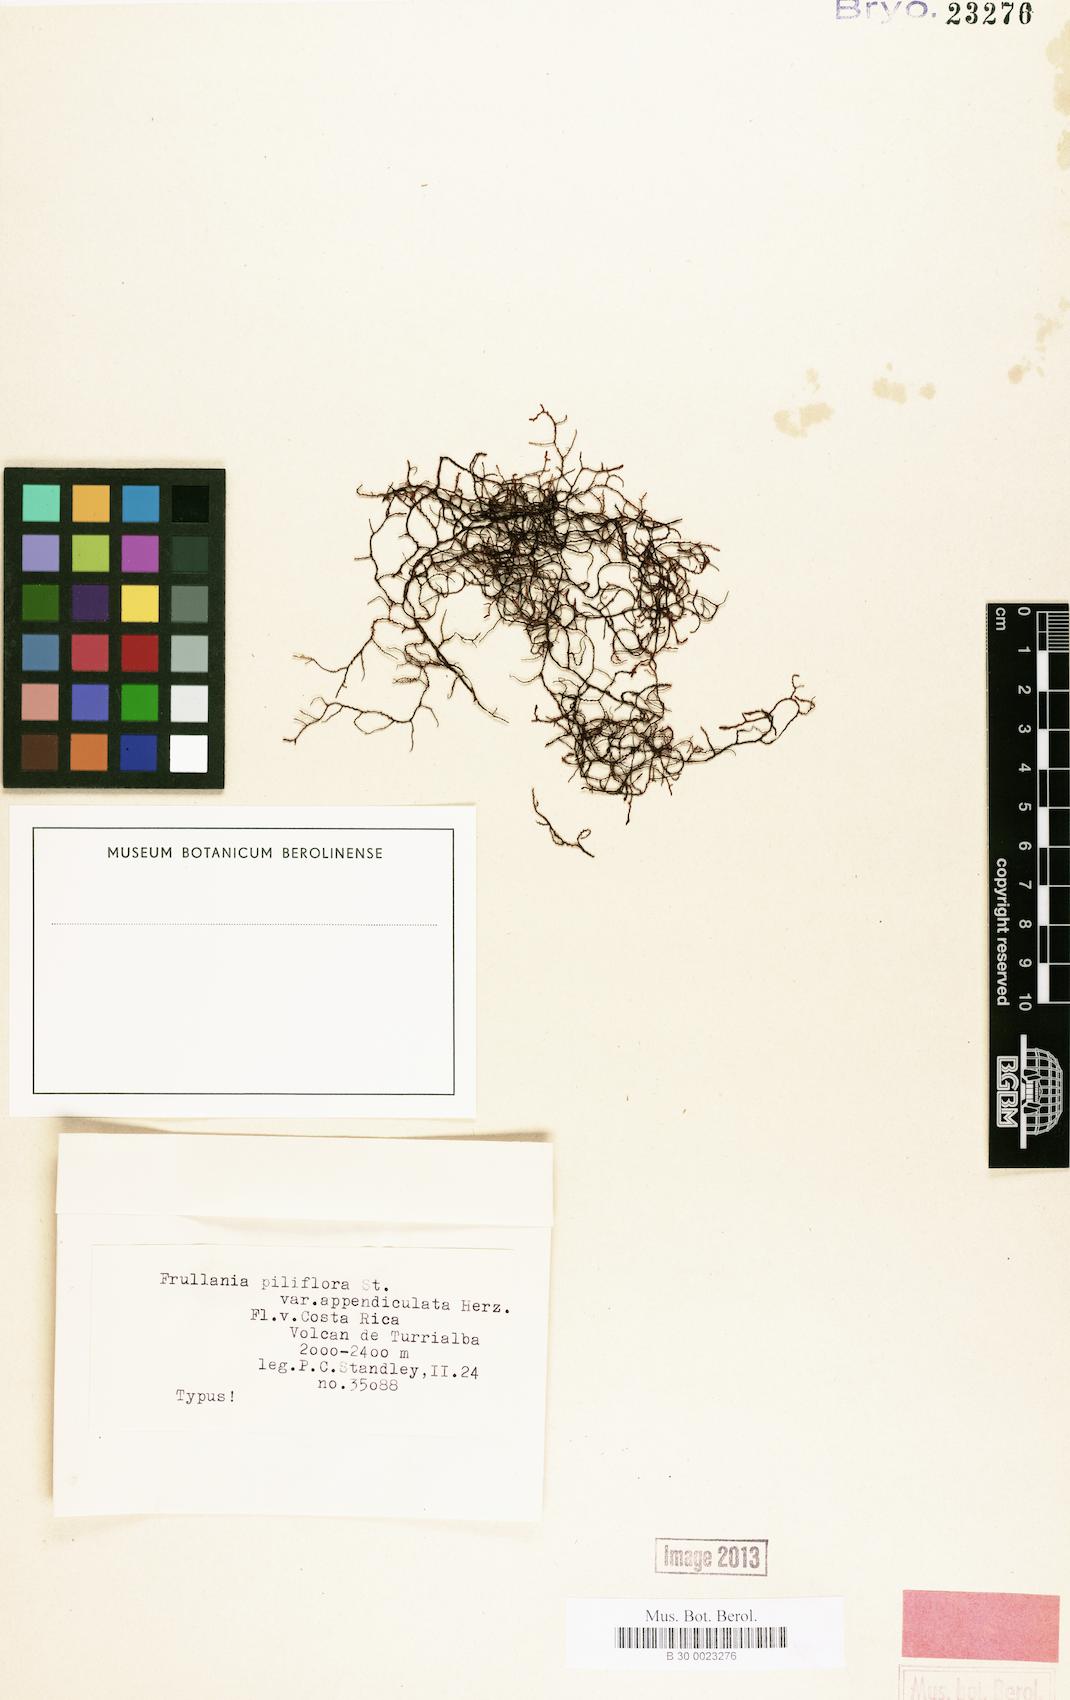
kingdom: Plantae
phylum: Marchantiophyta
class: Jungermanniopsida
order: Porellales
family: Frullaniaceae
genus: Frullania
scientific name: Frullania peruviana
